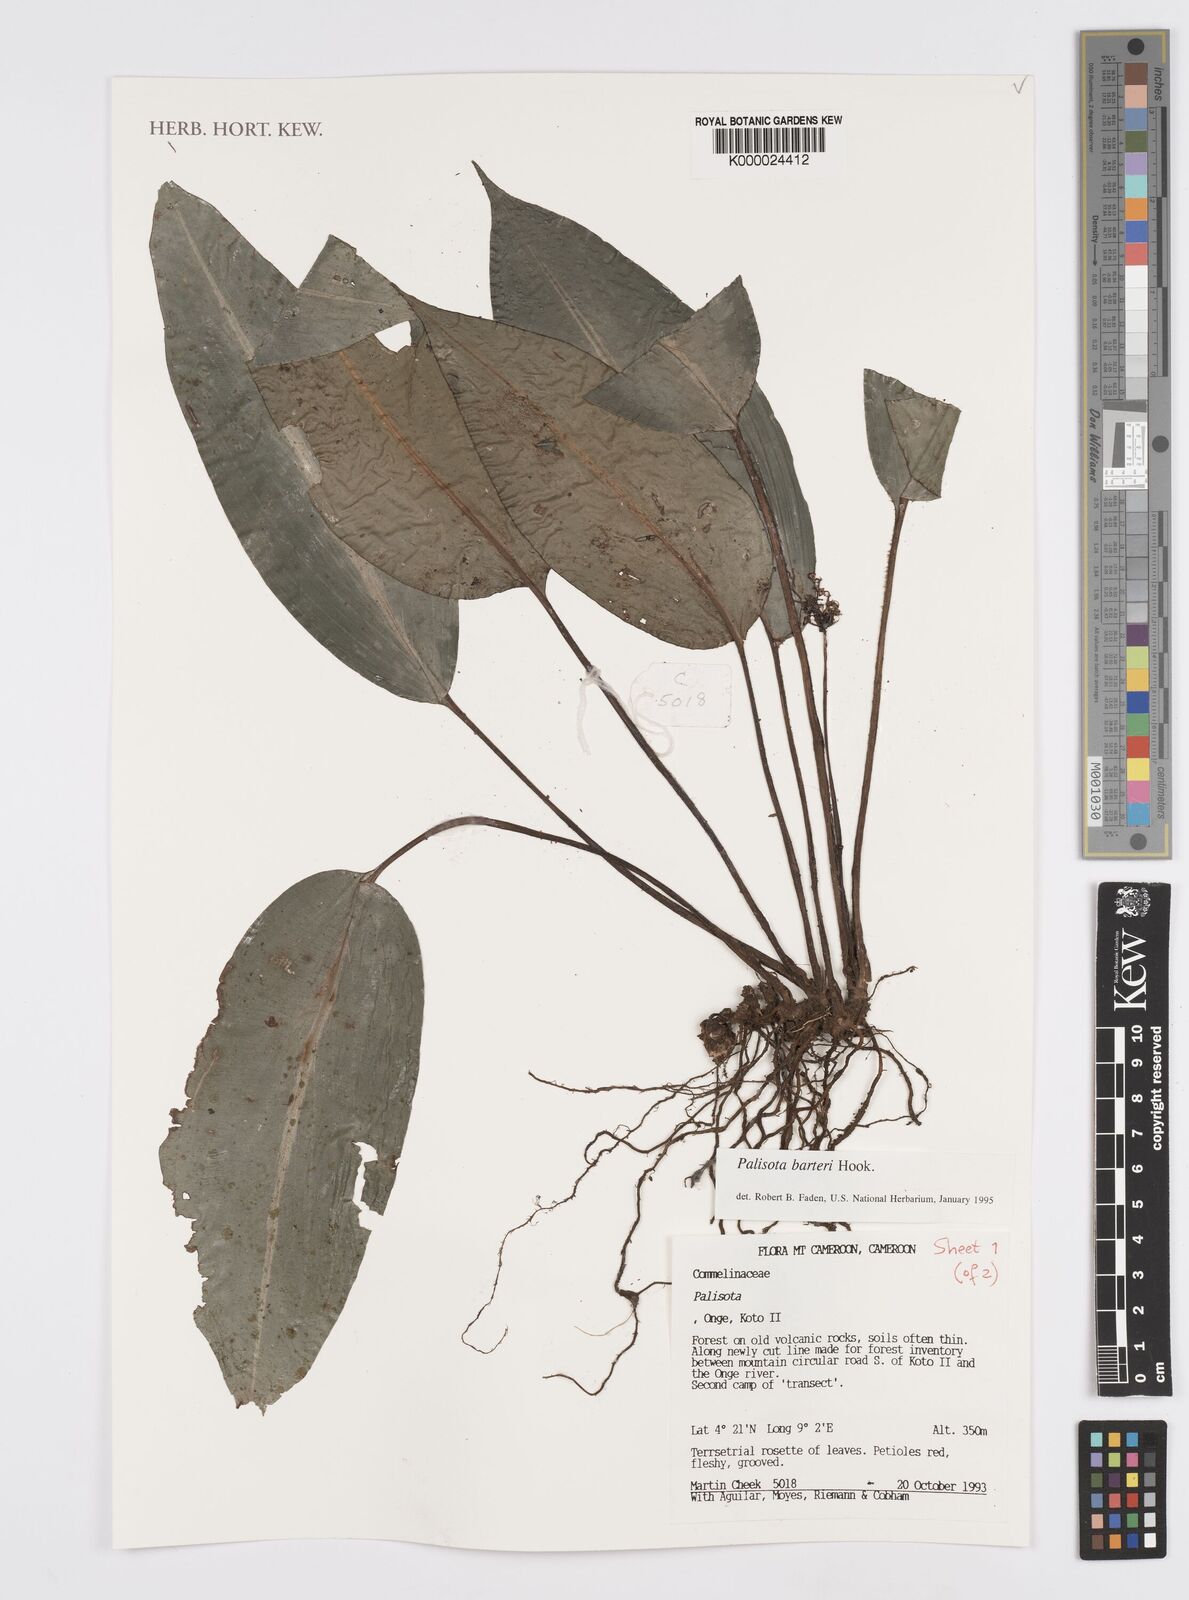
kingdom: Plantae
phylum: Tracheophyta
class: Liliopsida
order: Commelinales
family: Commelinaceae
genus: Palisota
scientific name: Palisota barteri
